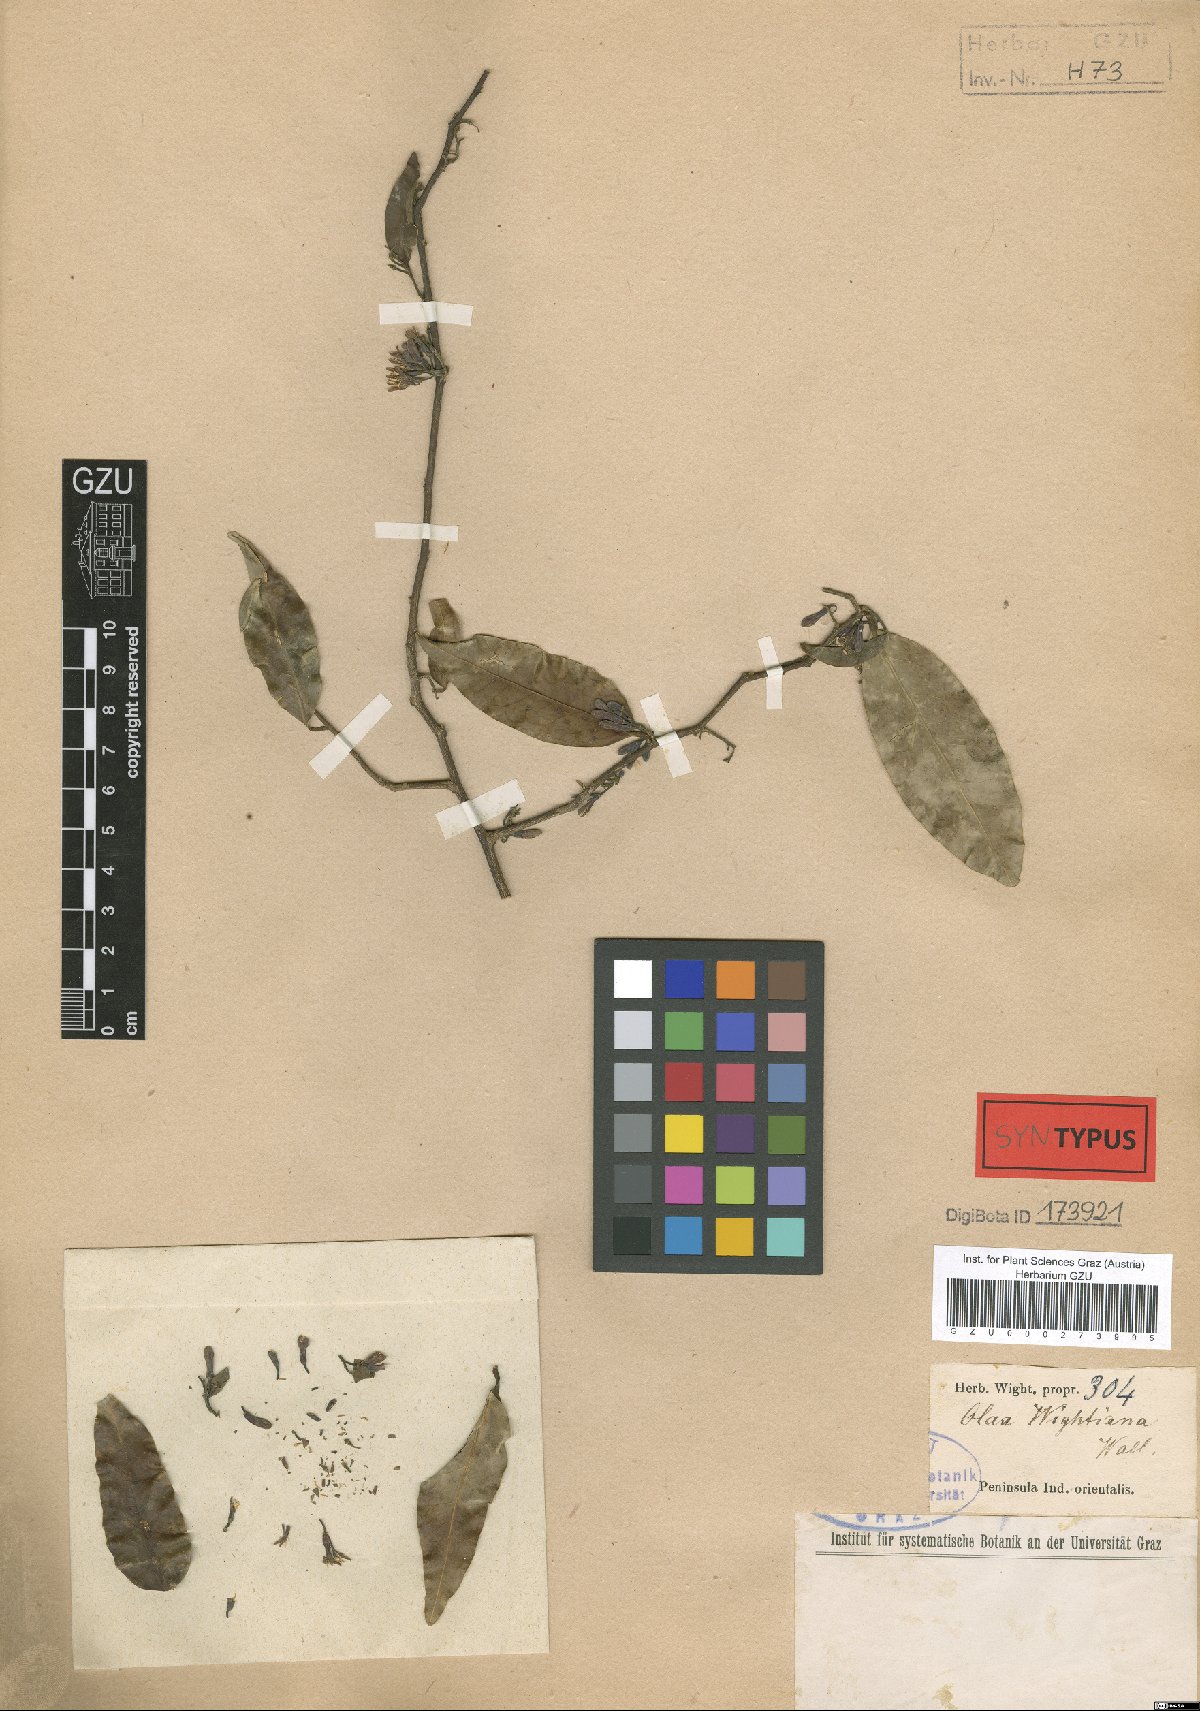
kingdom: Plantae
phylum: Tracheophyta
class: Magnoliopsida
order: Santalales
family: Olacaceae
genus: Olax
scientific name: Olax imbricata
